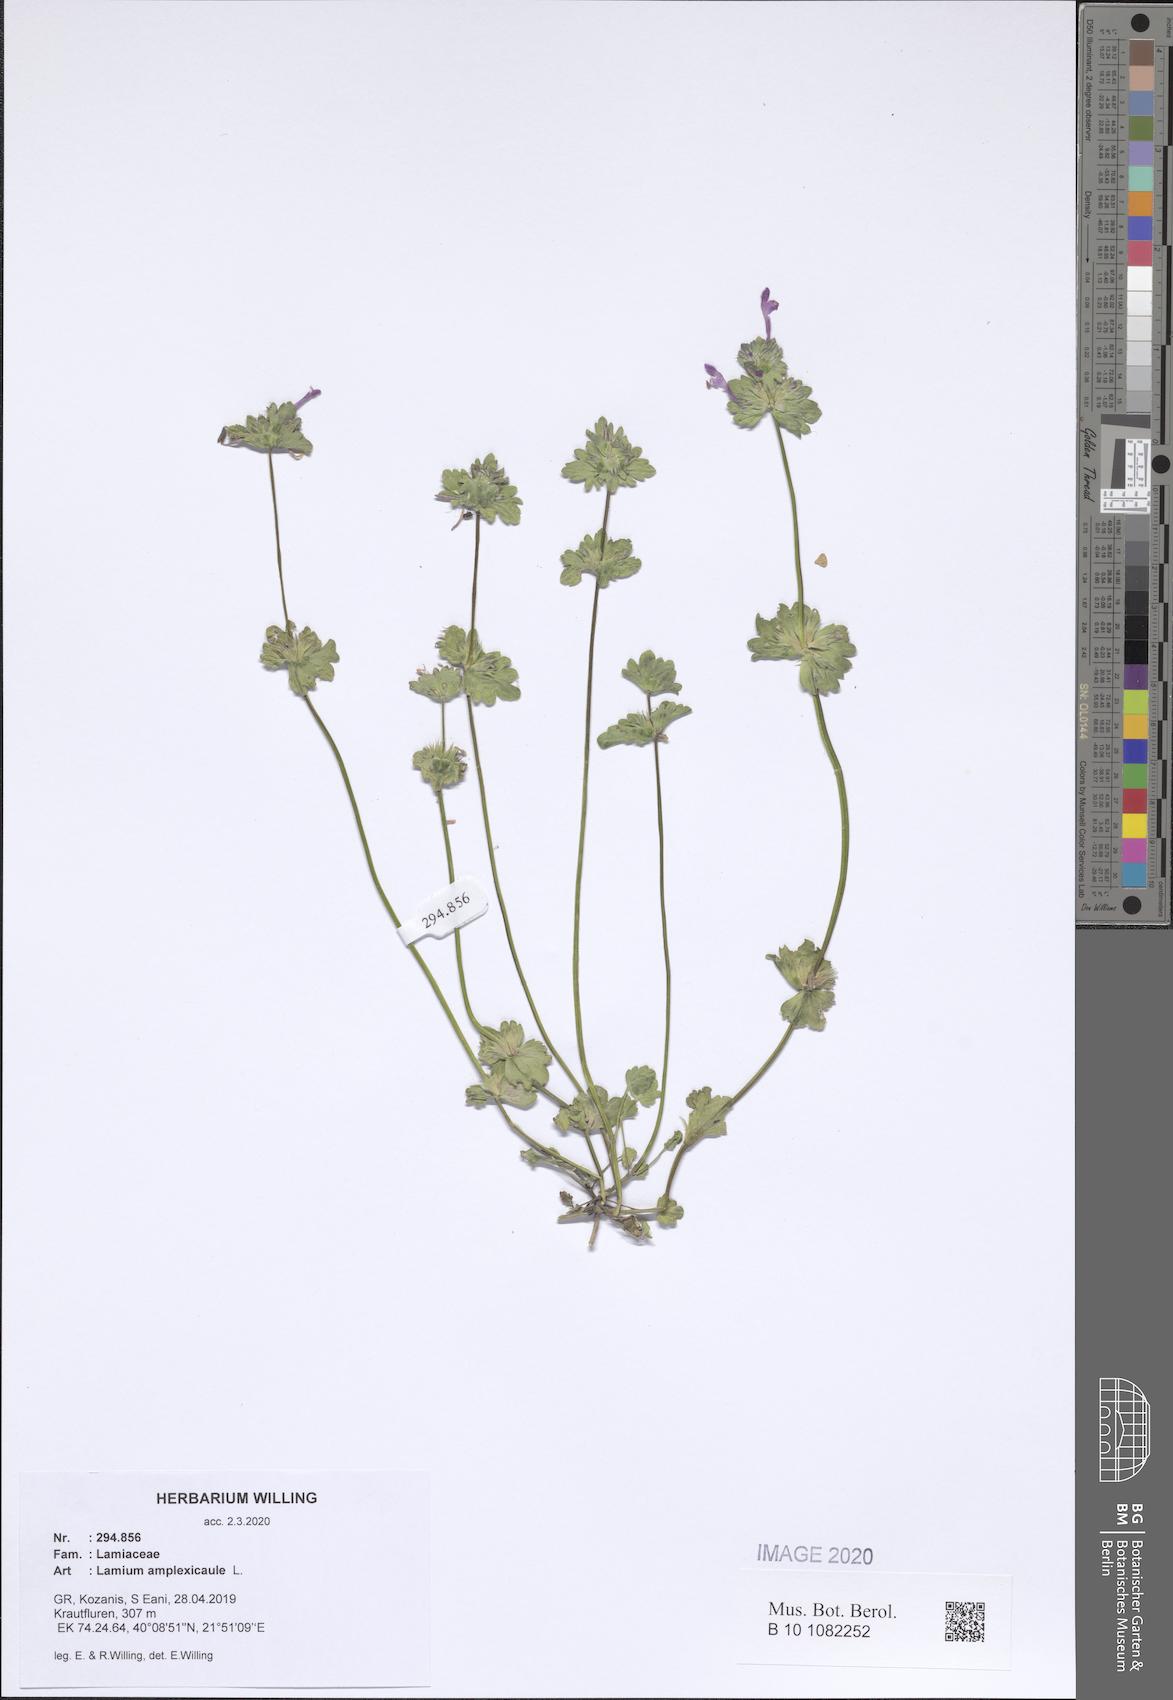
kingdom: Plantae
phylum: Tracheophyta
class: Magnoliopsida
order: Lamiales
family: Lamiaceae
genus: Lamium
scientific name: Lamium amplexicaule
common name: Henbit dead-nettle
